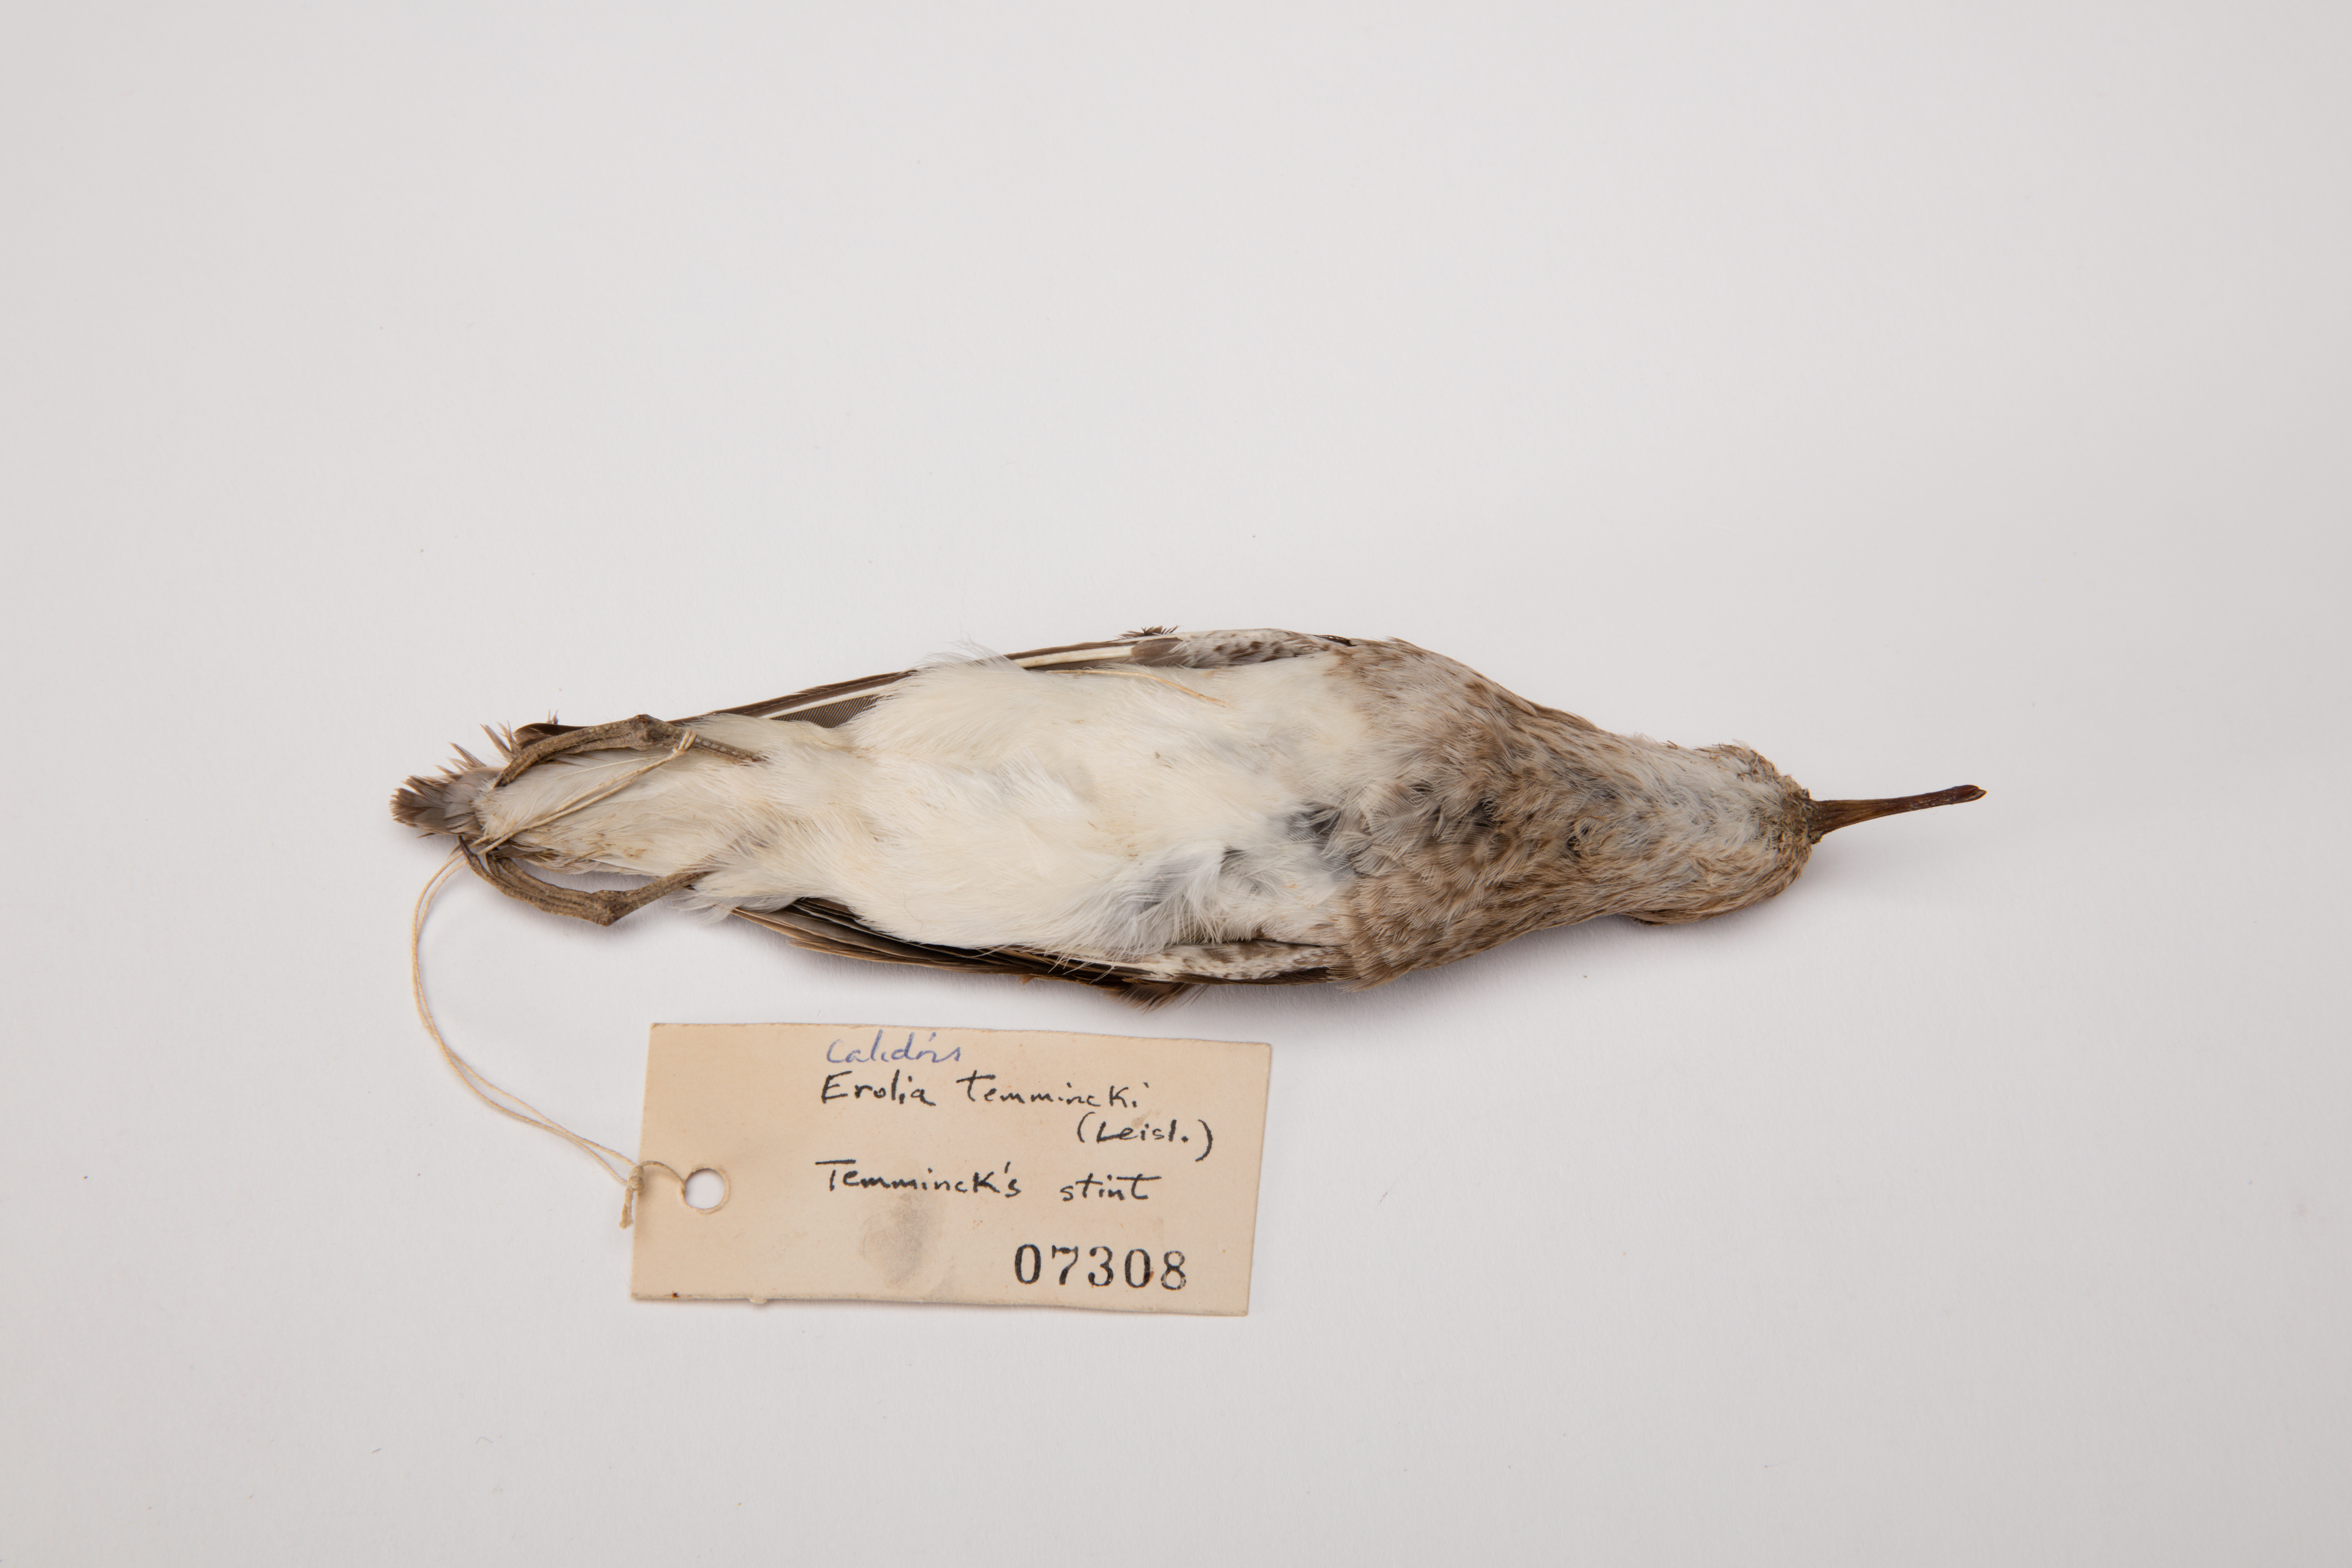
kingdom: Animalia
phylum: Chordata
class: Aves
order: Charadriiformes
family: Scolopacidae
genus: Calidris
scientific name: Calidris temminckii
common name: Temminck's stint
